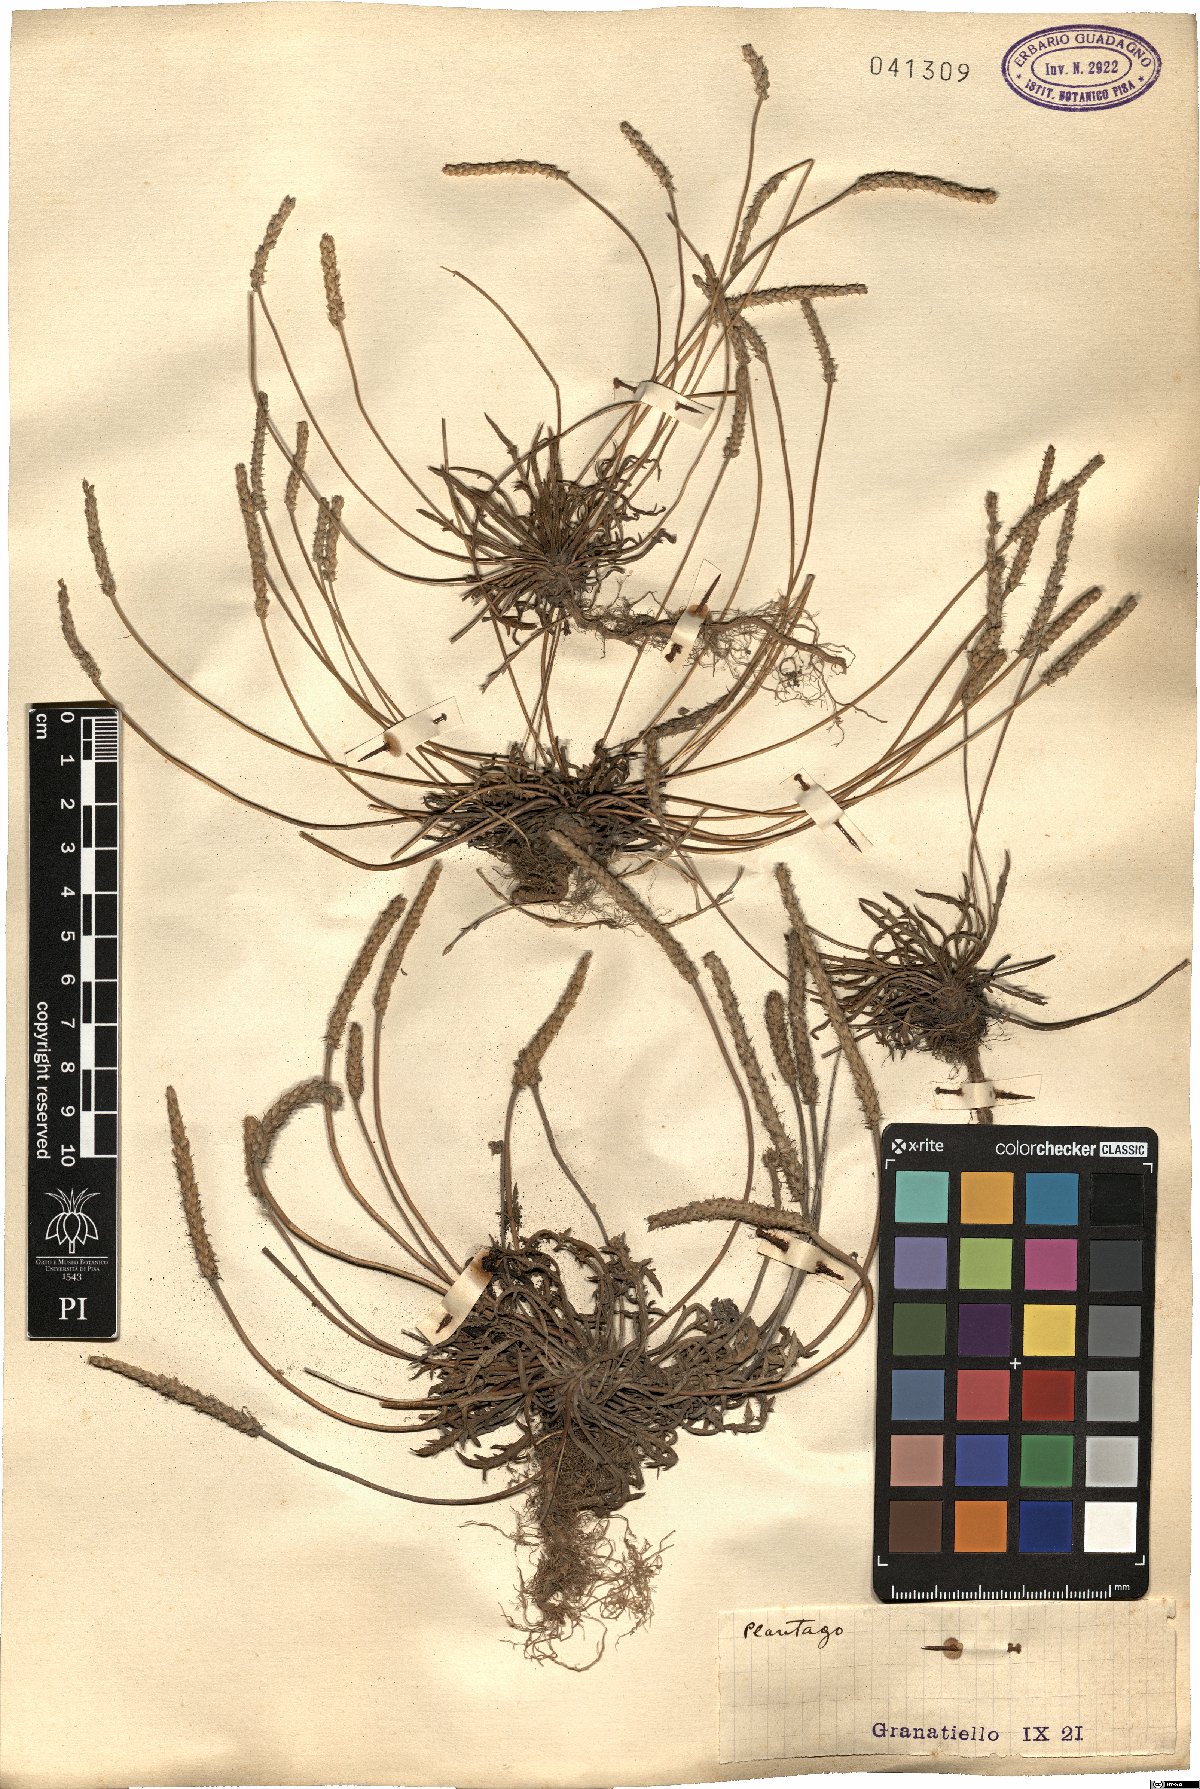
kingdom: Plantae
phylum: Tracheophyta
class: Magnoliopsida
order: Lamiales
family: Plantaginaceae
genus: Plantago
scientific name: Plantago
